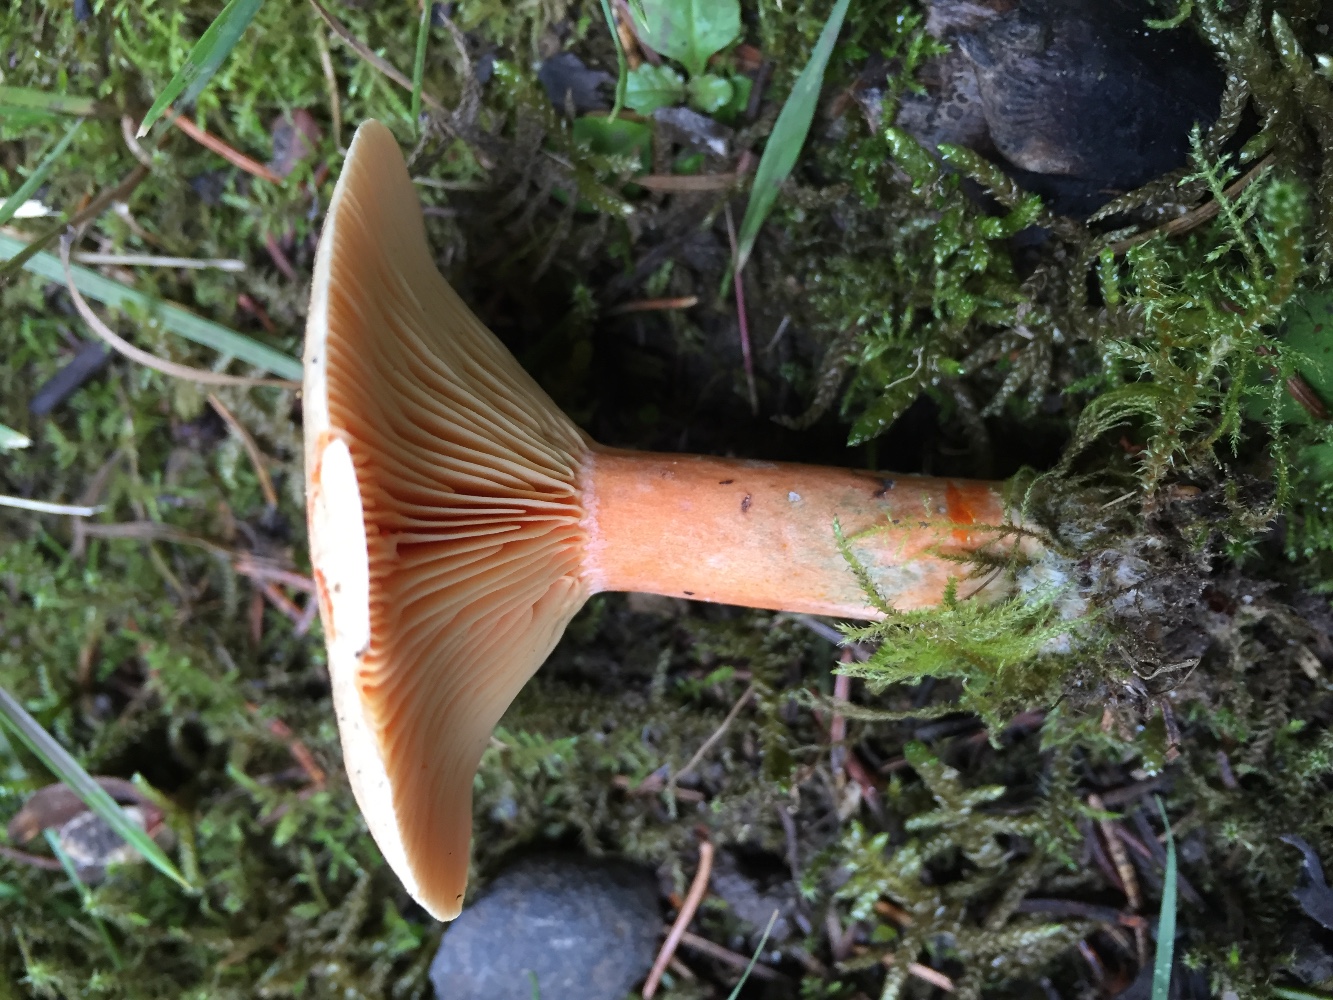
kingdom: Fungi
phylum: Basidiomycota
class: Agaricomycetes
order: Russulales
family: Russulaceae
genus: Lactarius
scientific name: Lactarius deterrimus
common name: gran-mælkehat
